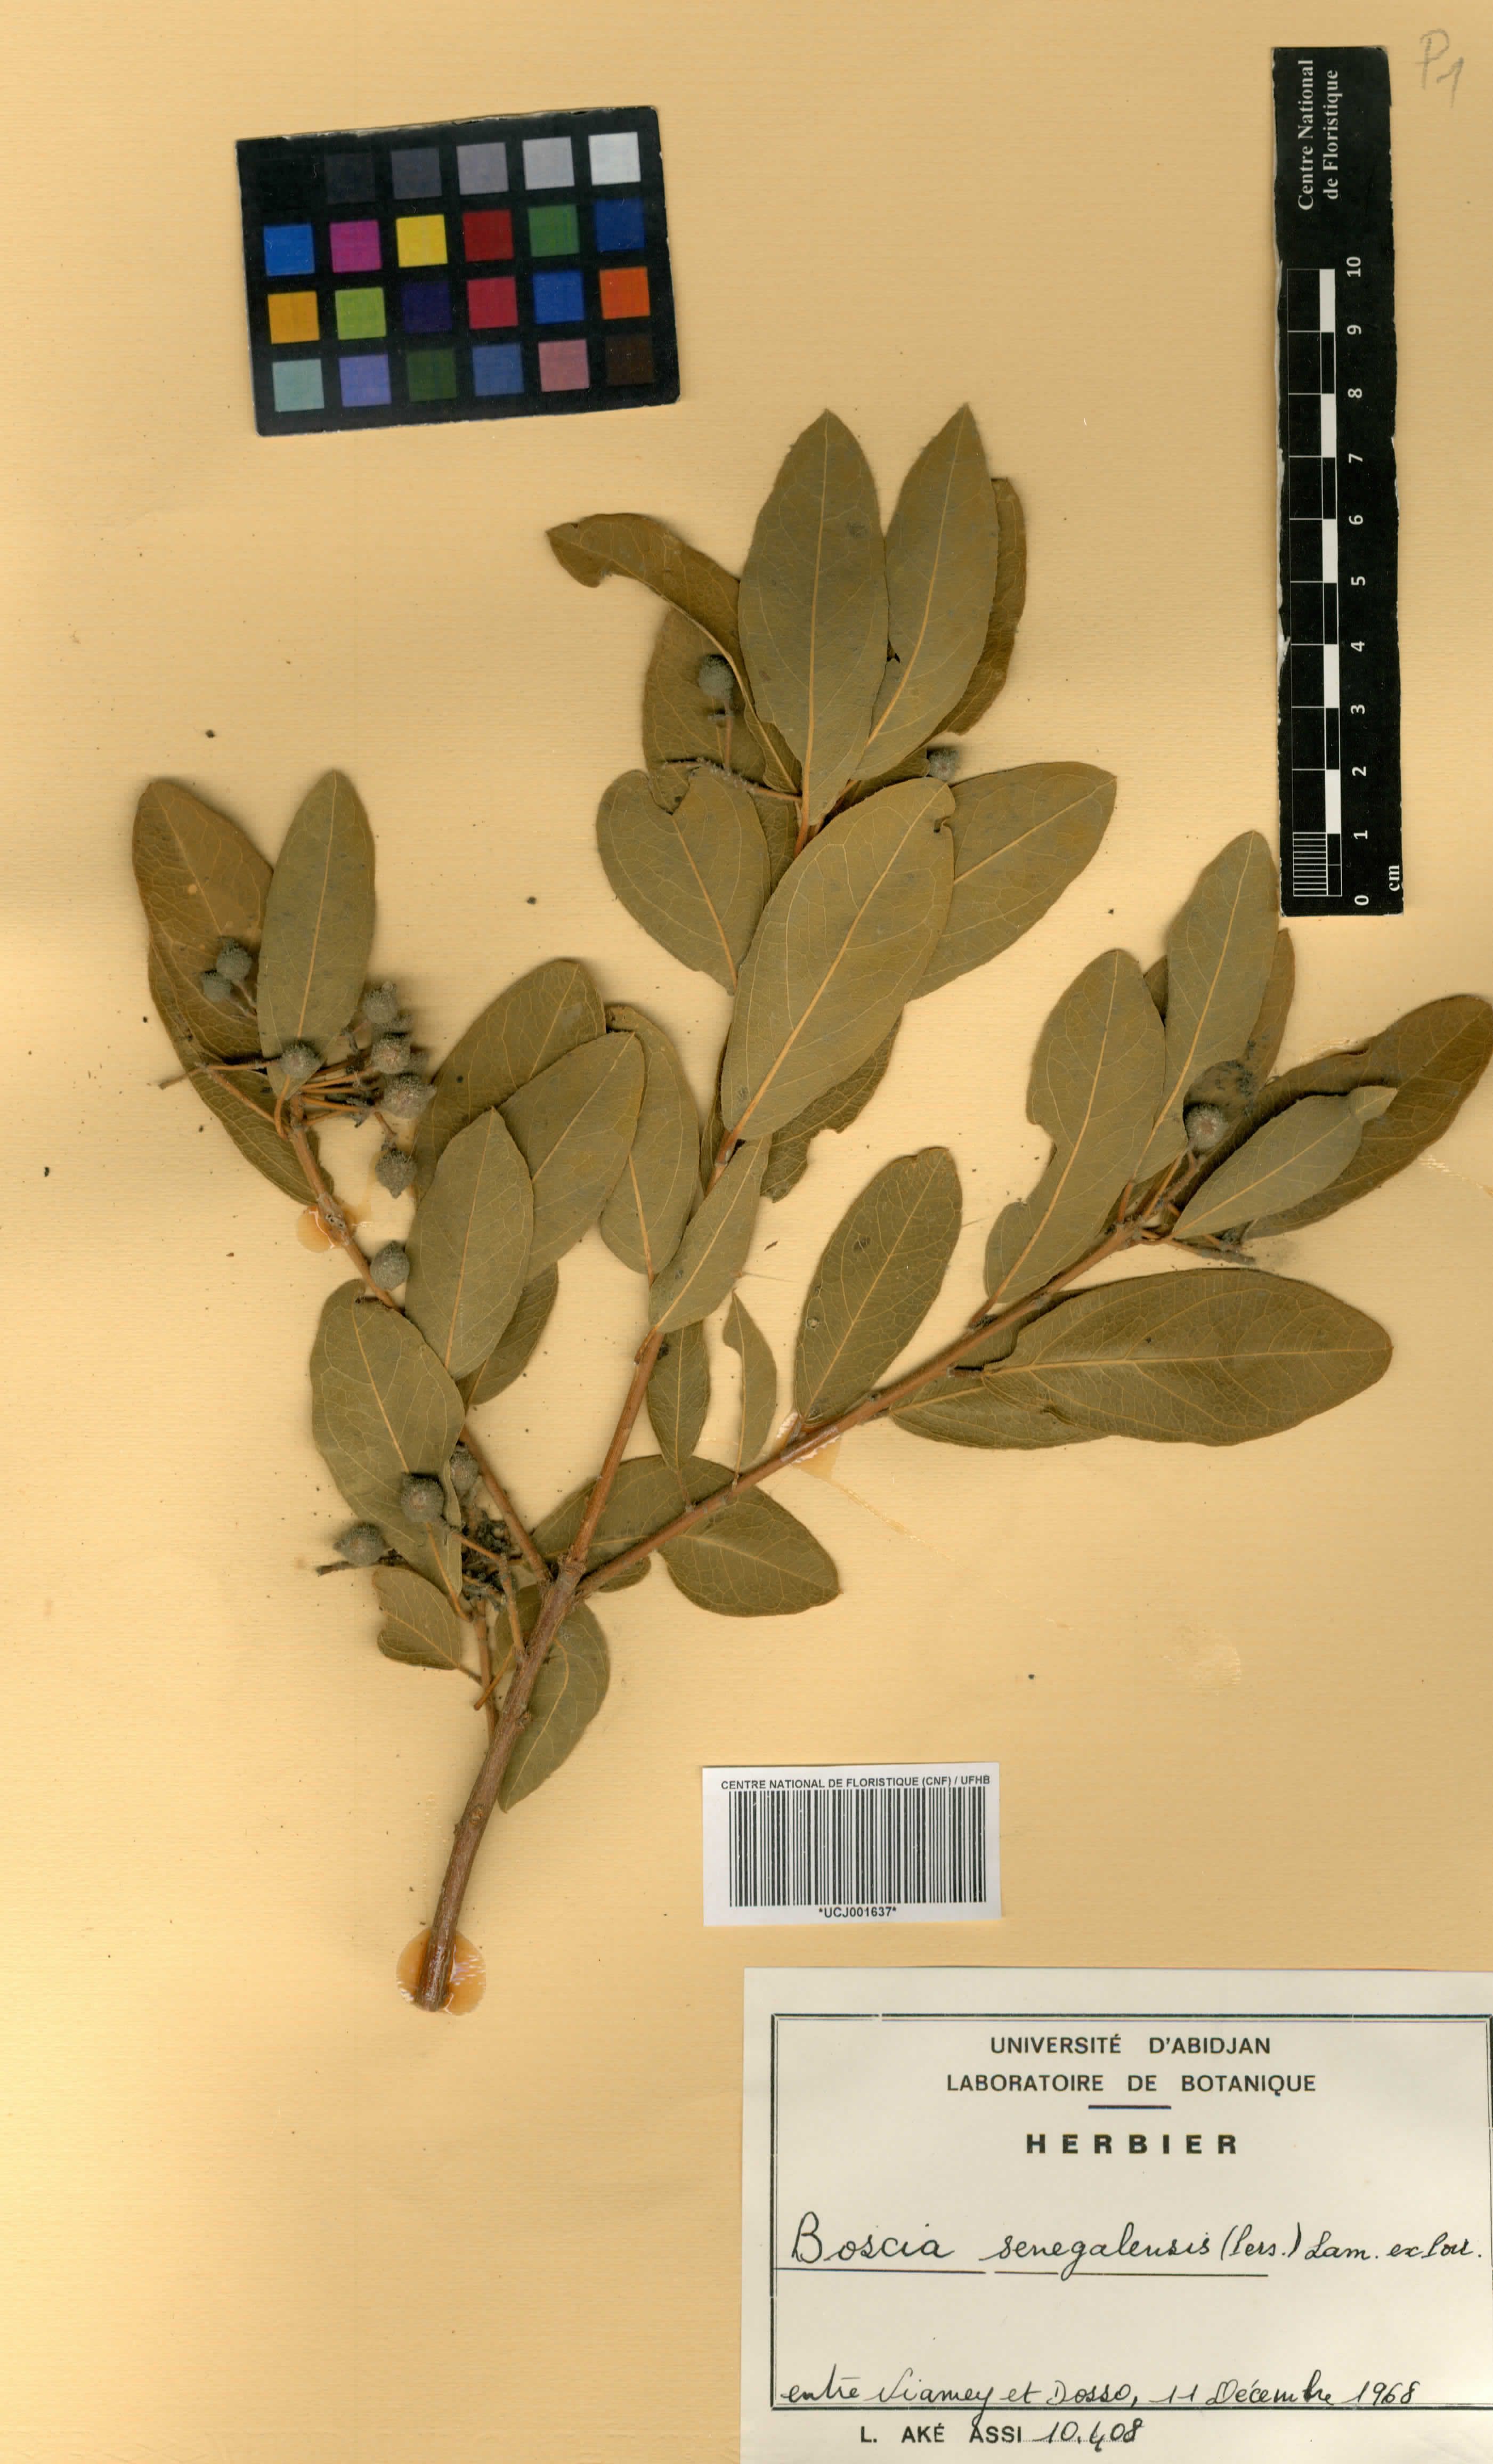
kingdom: Plantae
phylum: Tracheophyta
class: Magnoliopsida
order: Brassicales
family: Capparaceae
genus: Boscia
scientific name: Boscia senegalensis
